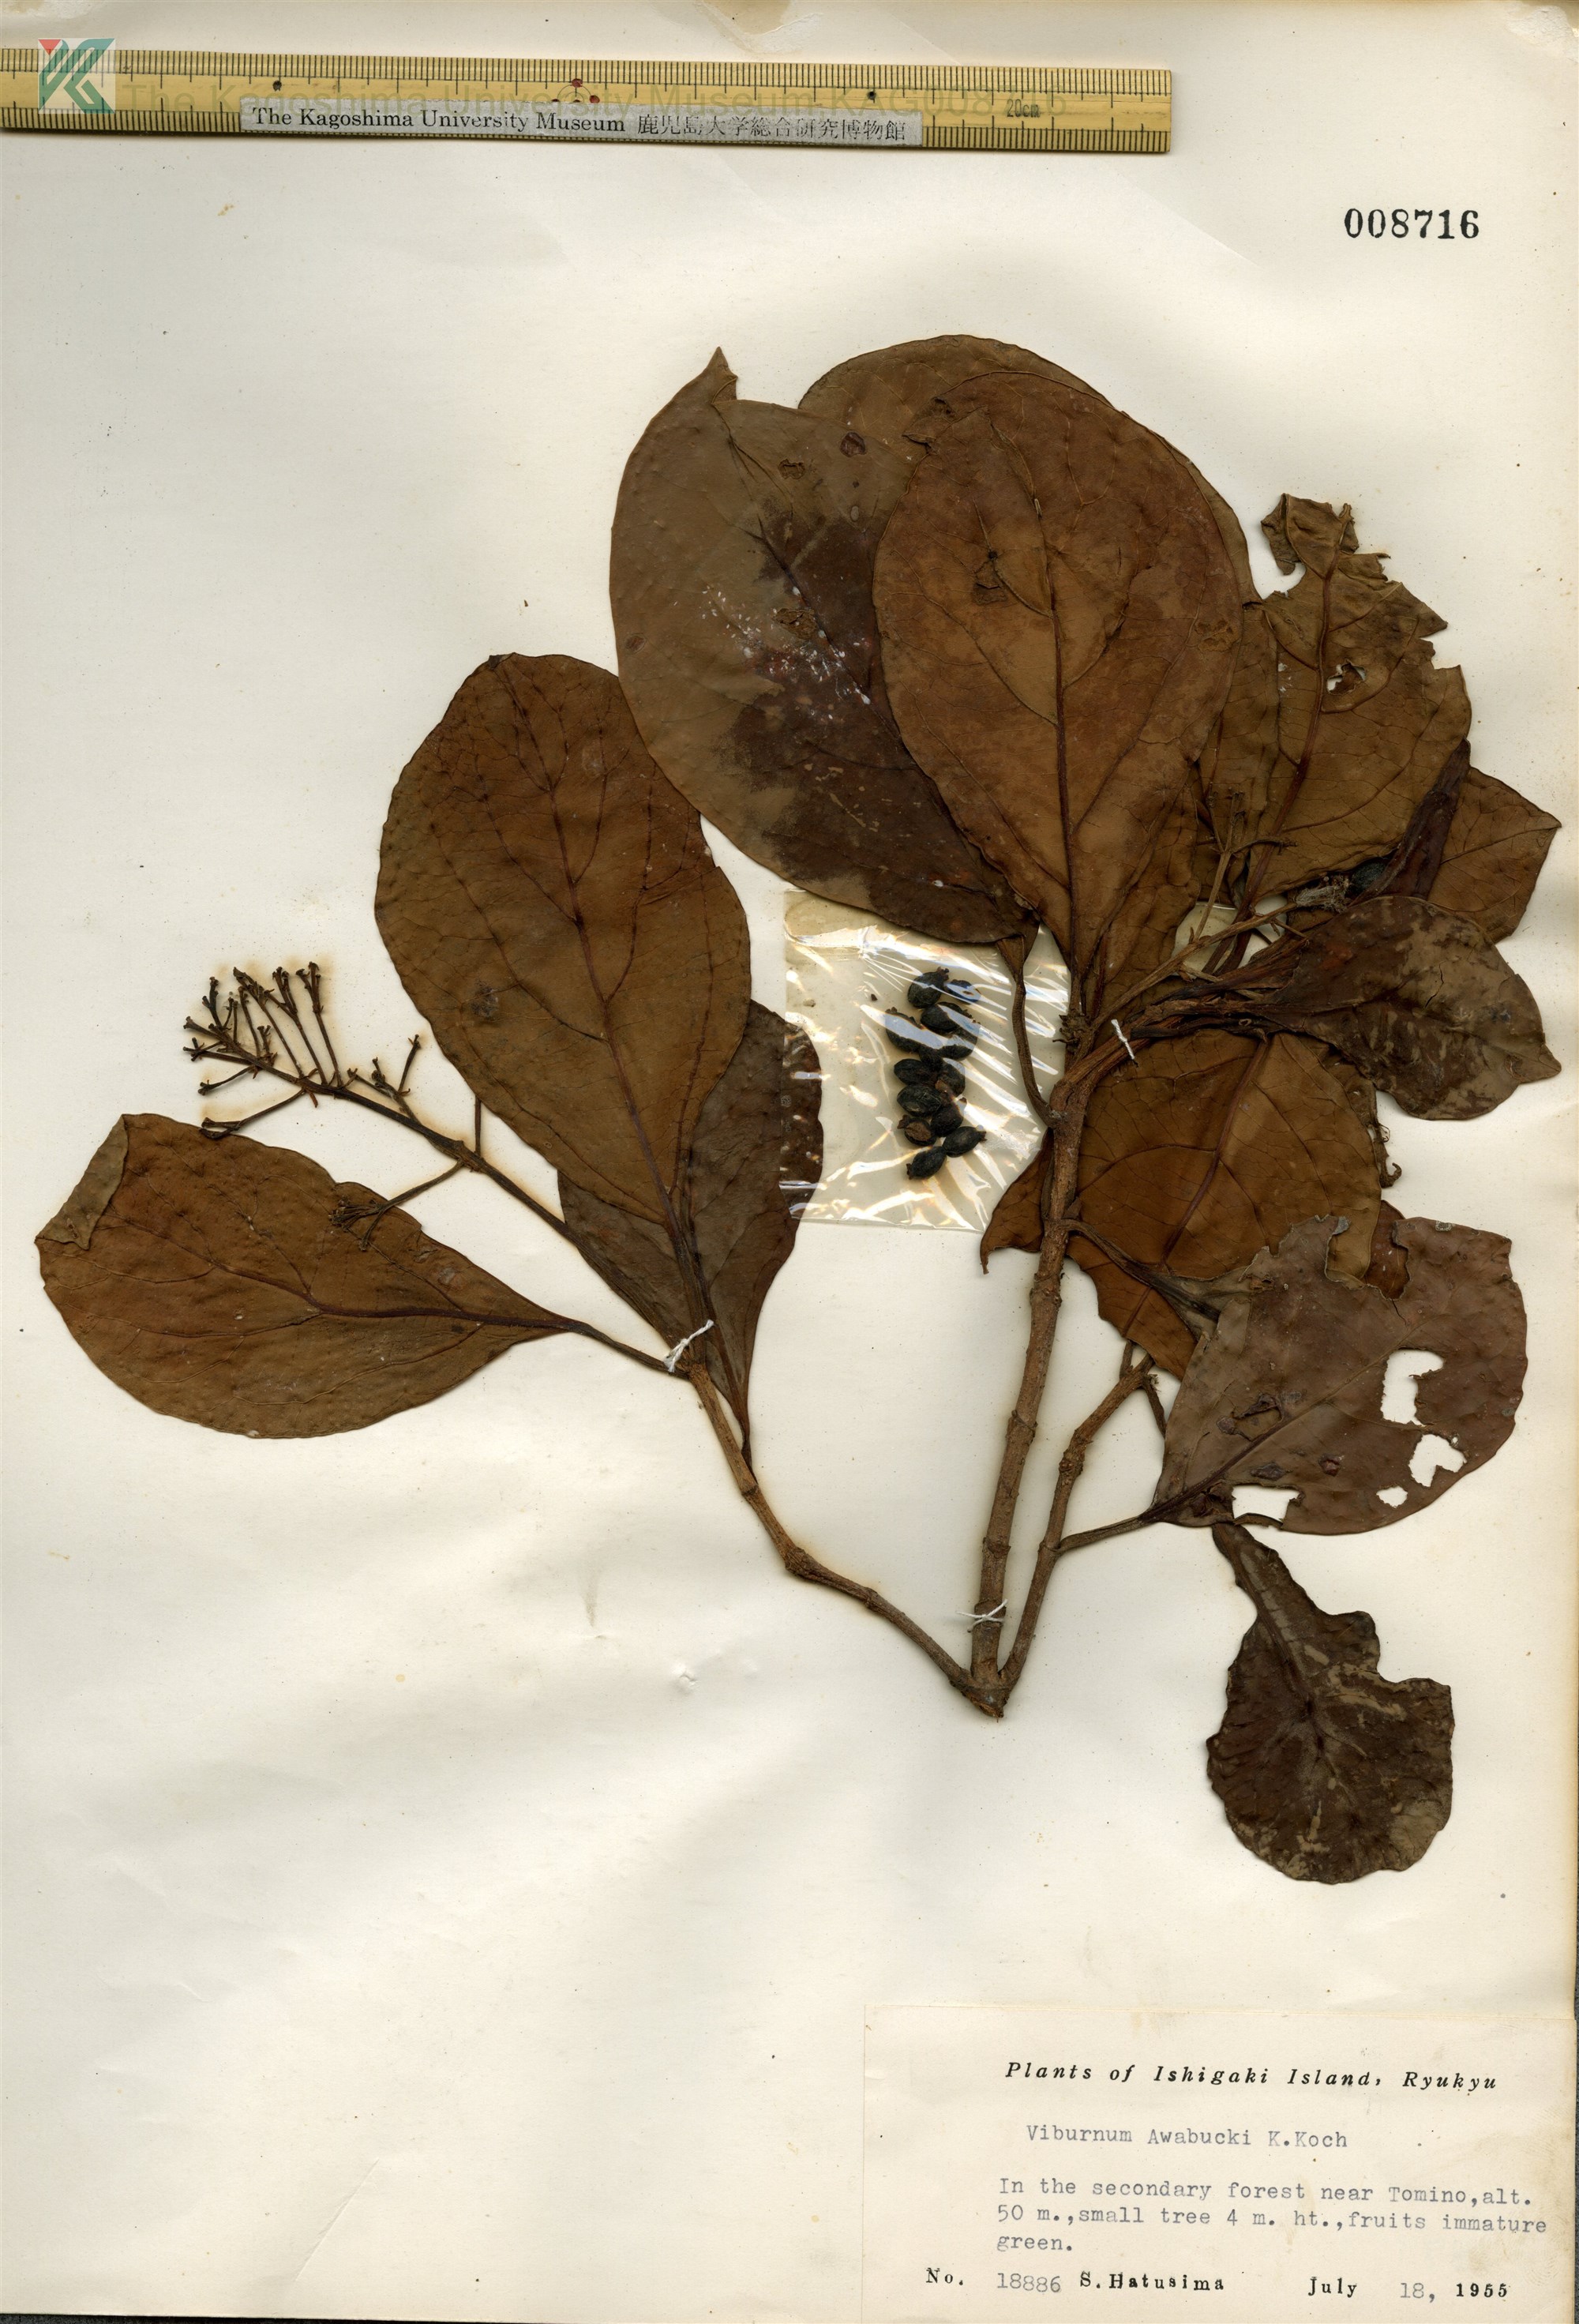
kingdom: Plantae
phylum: Tracheophyta
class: Magnoliopsida
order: Dipsacales
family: Viburnaceae
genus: Viburnum
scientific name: Viburnum odoratissimum
